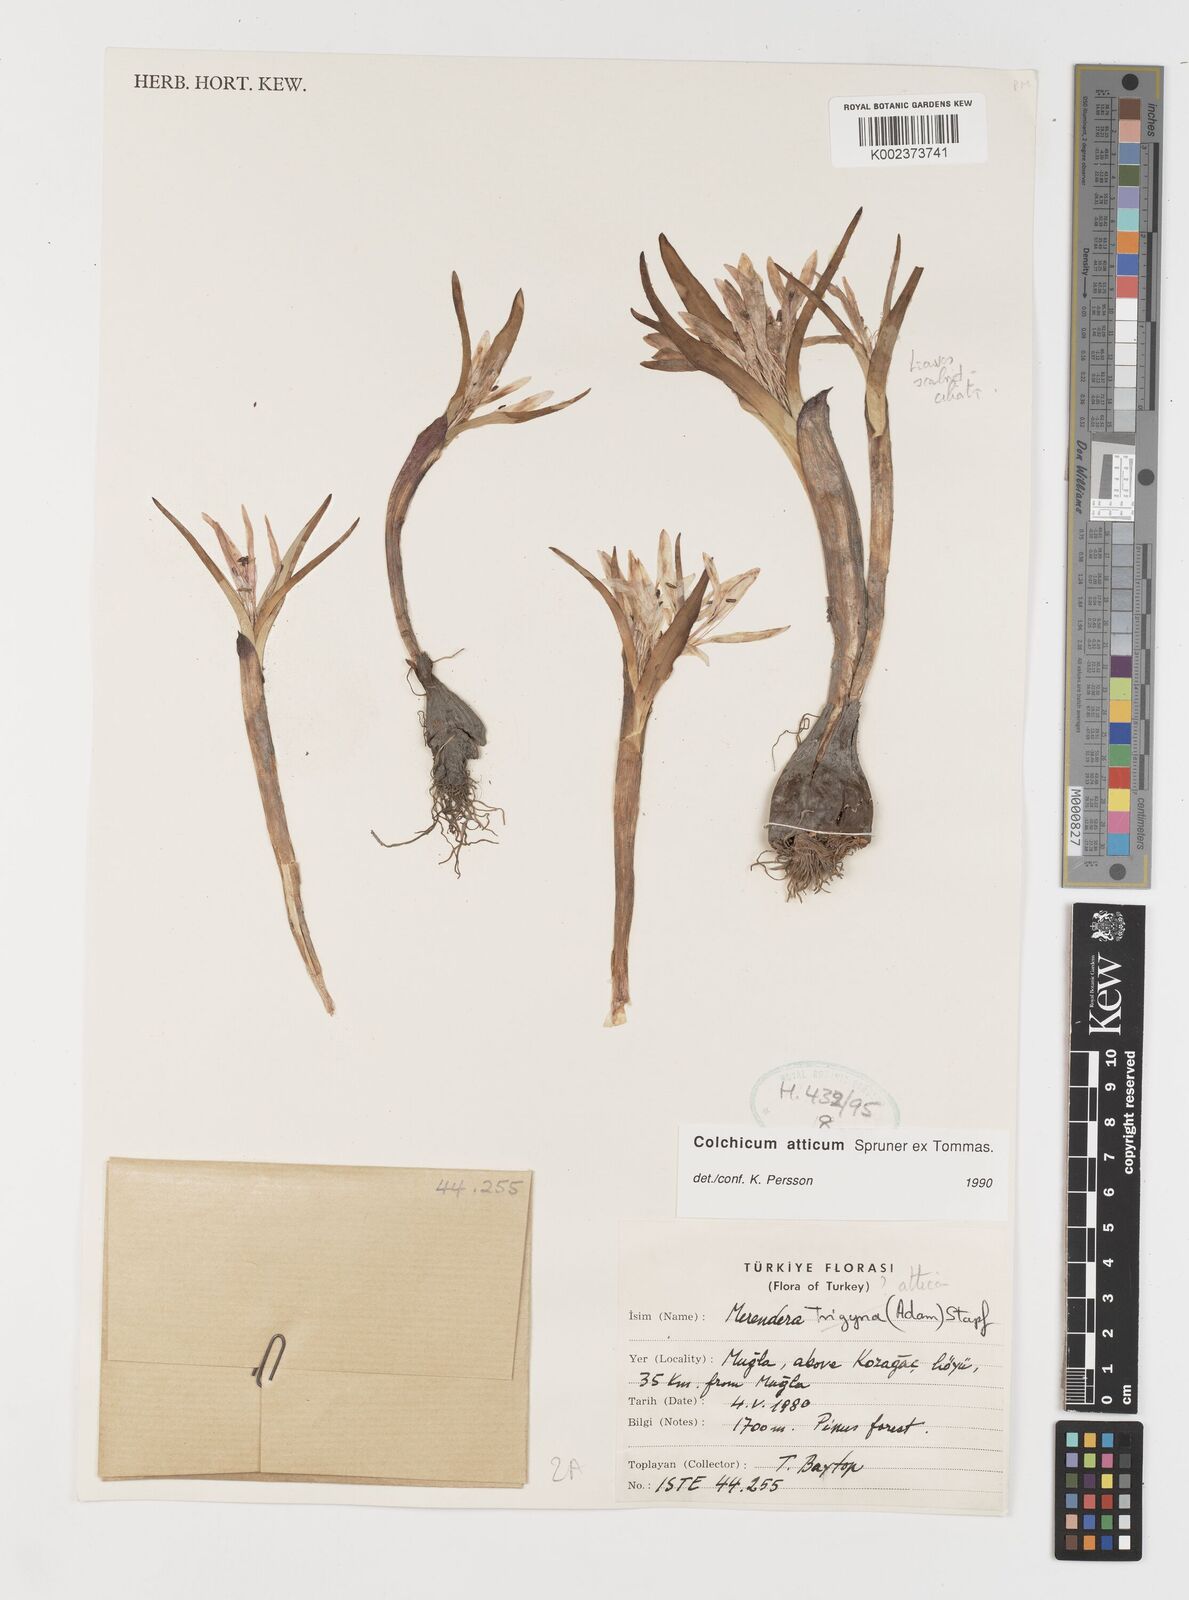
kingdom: Plantae
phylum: Tracheophyta
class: Liliopsida
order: Liliales
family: Colchicaceae
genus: Colchicum
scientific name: Colchicum atticum
